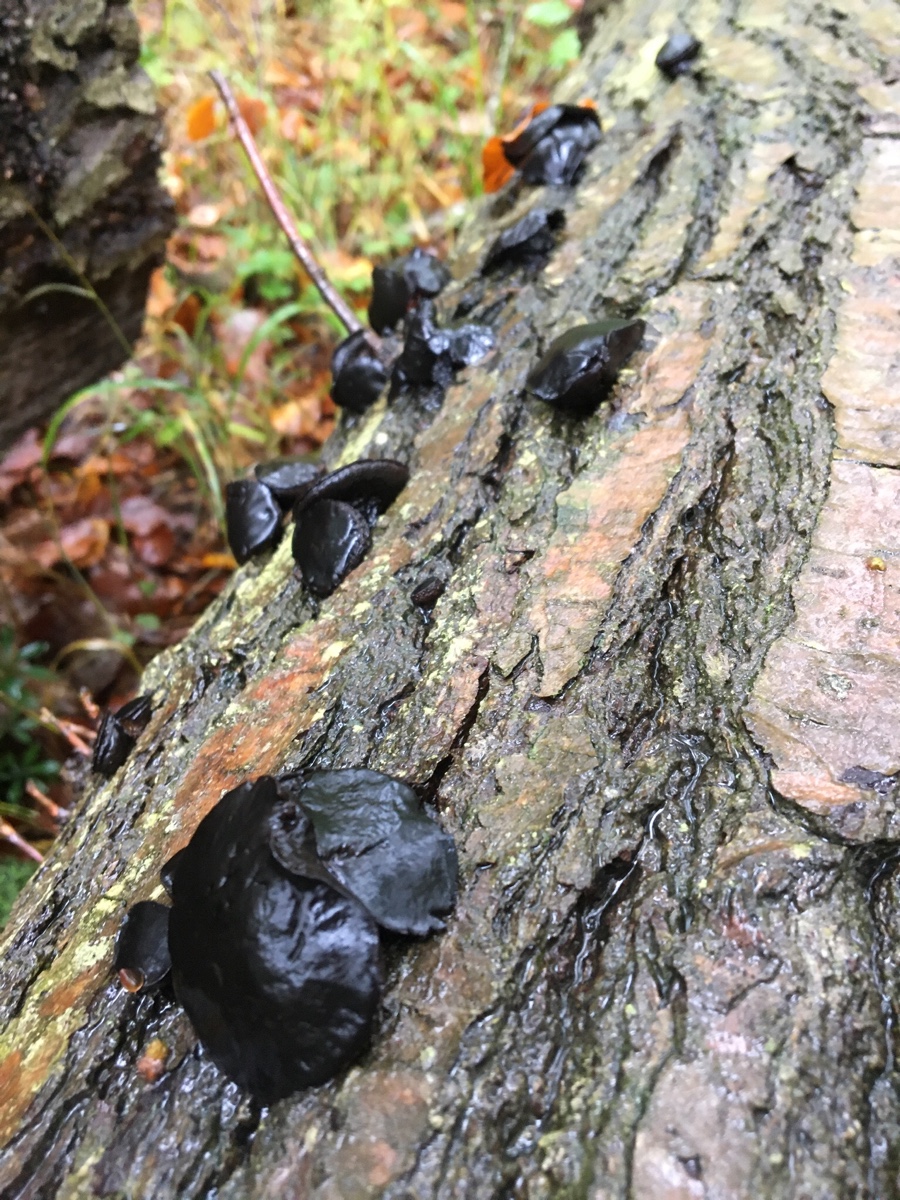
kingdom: Fungi
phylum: Ascomycota
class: Leotiomycetes
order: Phacidiales
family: Phacidiaceae
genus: Bulgaria
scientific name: Bulgaria inquinans
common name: afsmittende topsvamp
